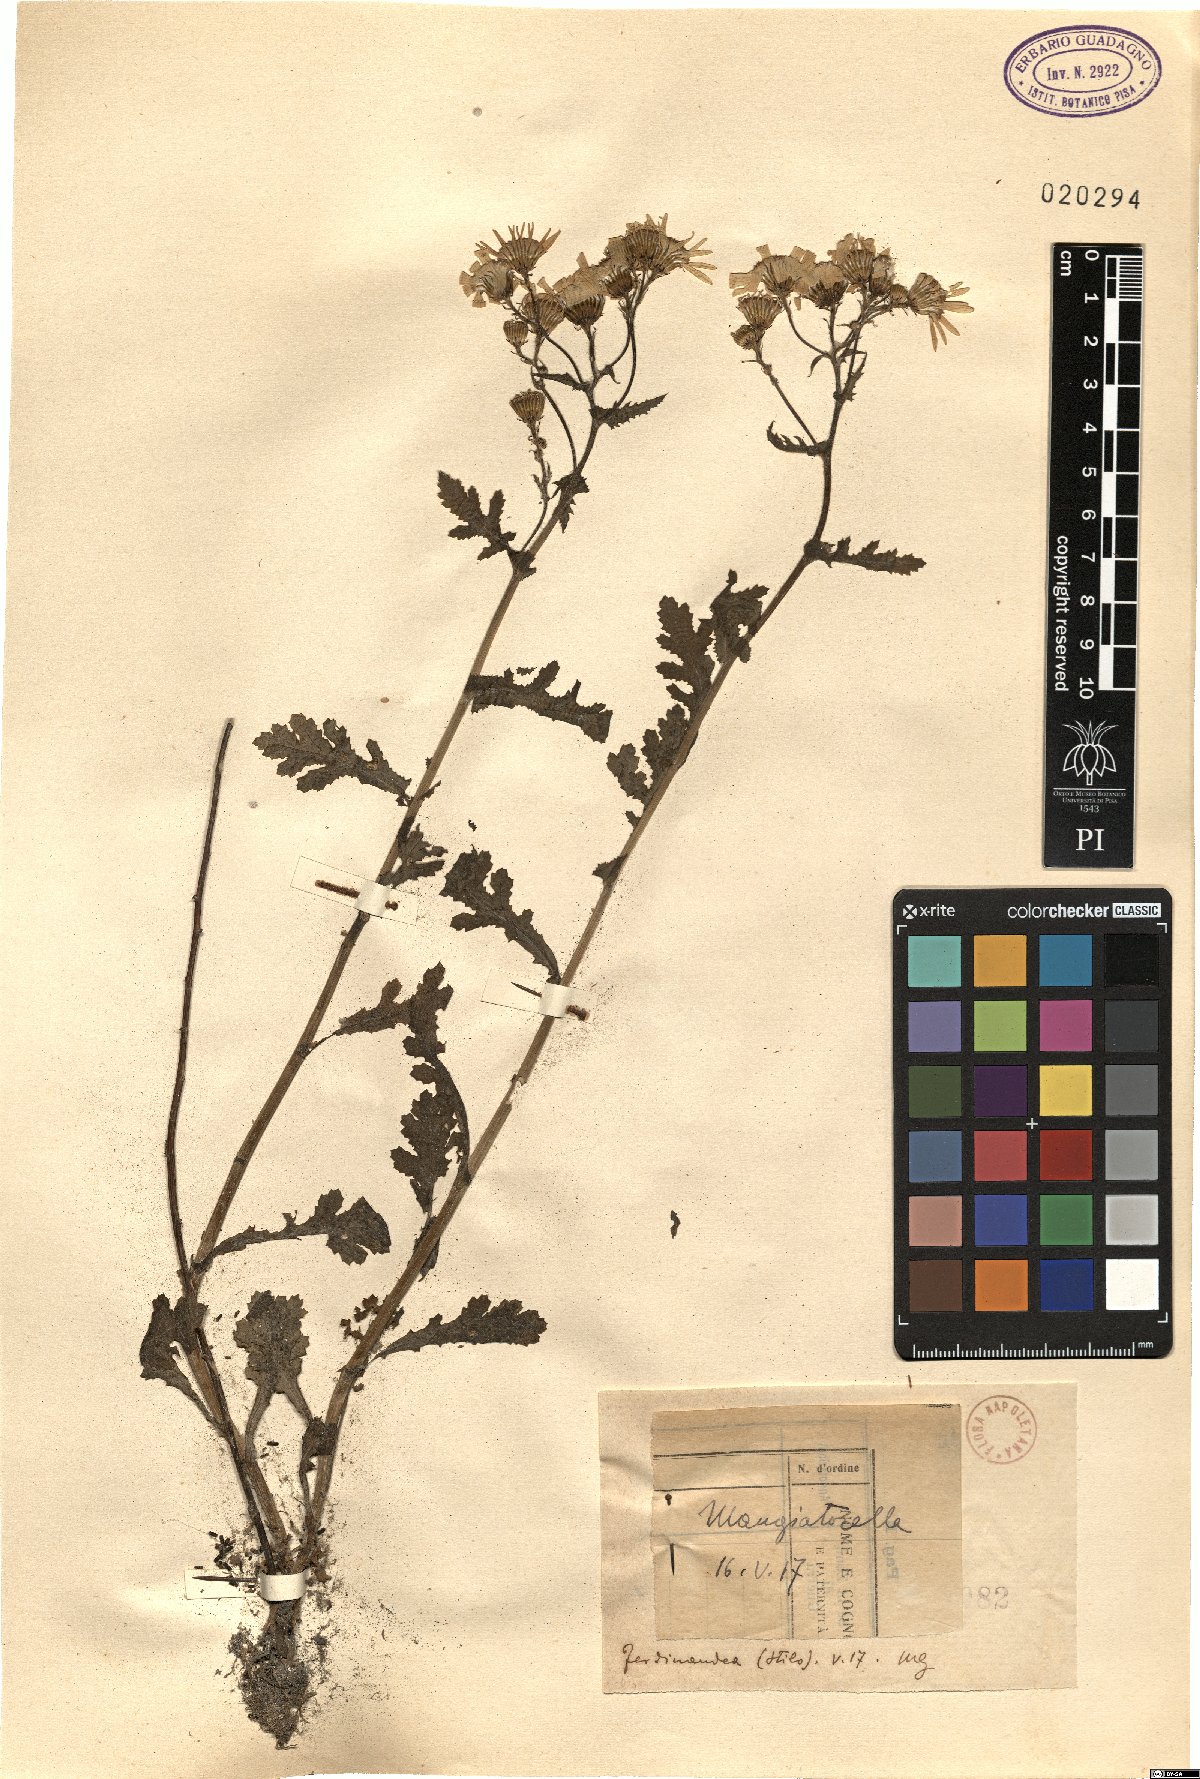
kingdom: Plantae
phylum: Tracheophyta
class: Magnoliopsida
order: Asterales
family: Asteraceae
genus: Senecio
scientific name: Senecio
